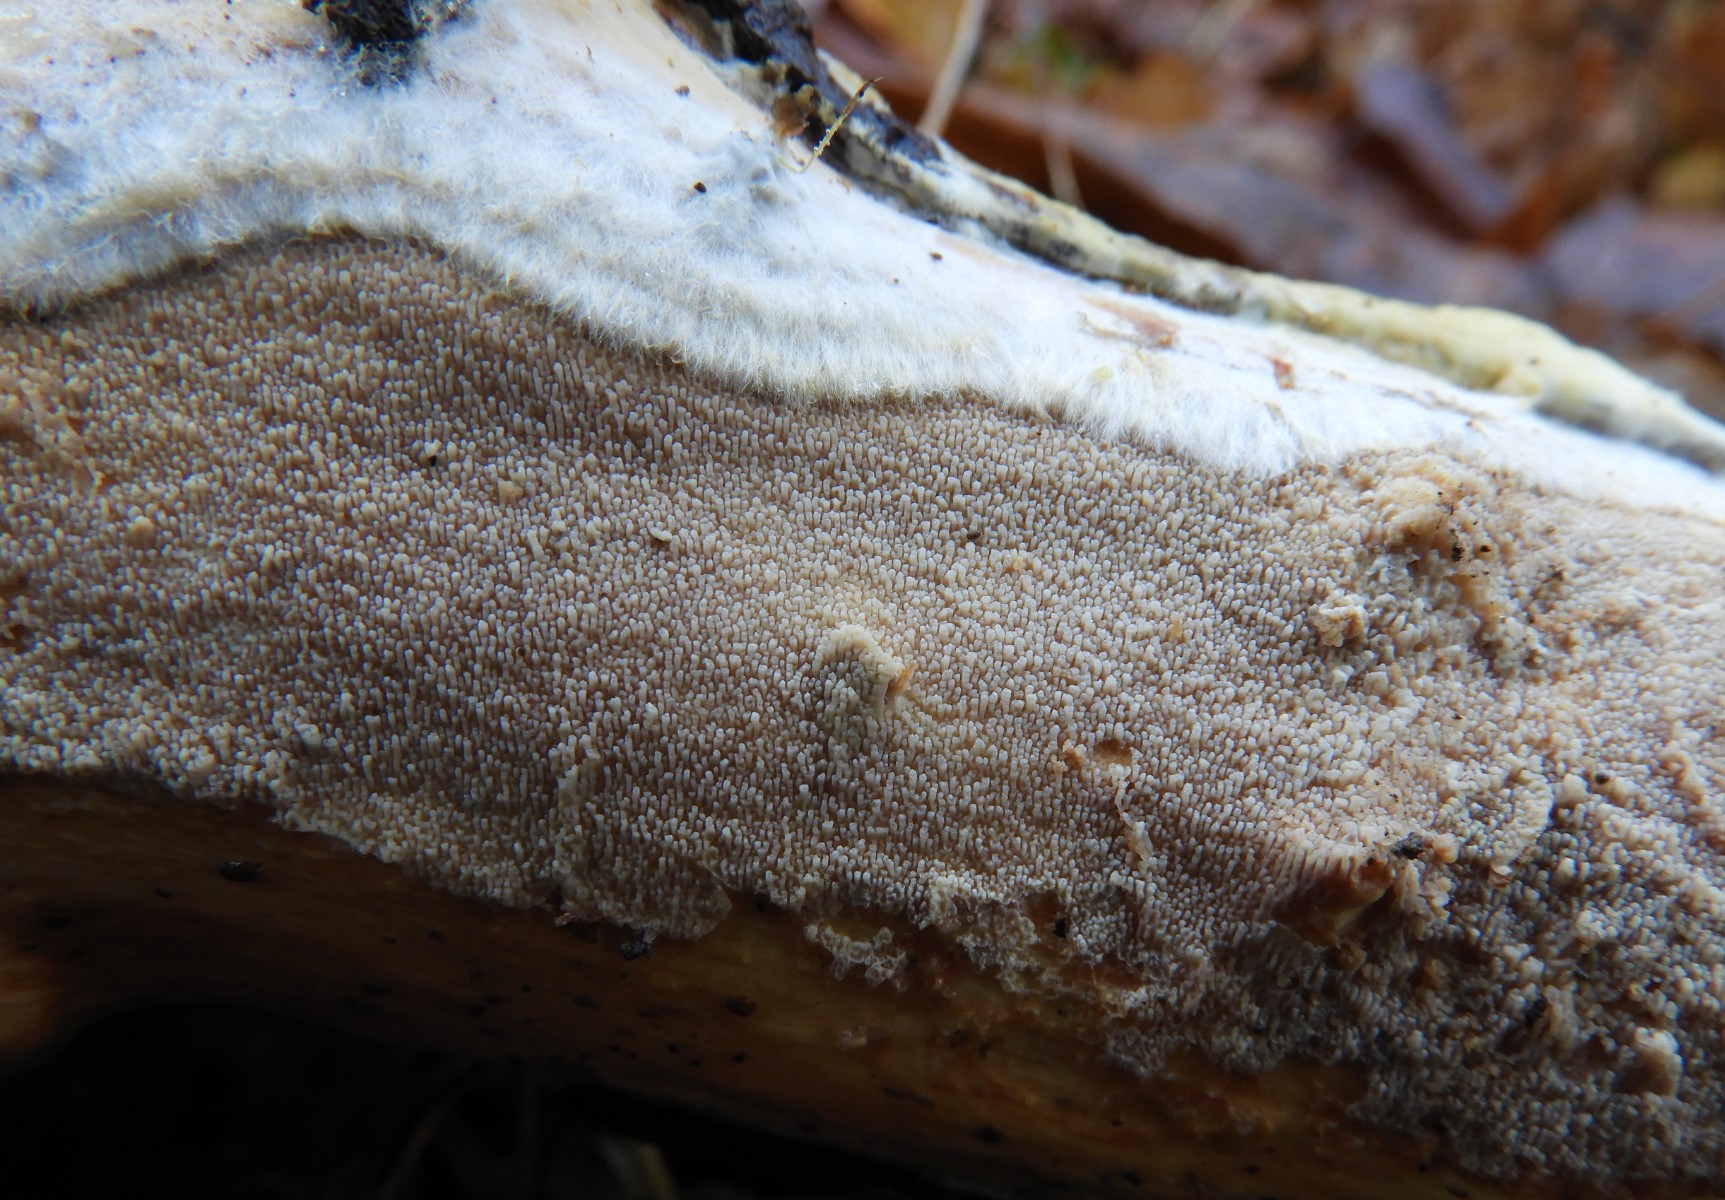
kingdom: Fungi
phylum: Basidiomycota
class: Agaricomycetes
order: Polyporales
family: Meruliaceae
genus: Phlebia
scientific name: Phlebia rufa
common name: ege-åresvamp
